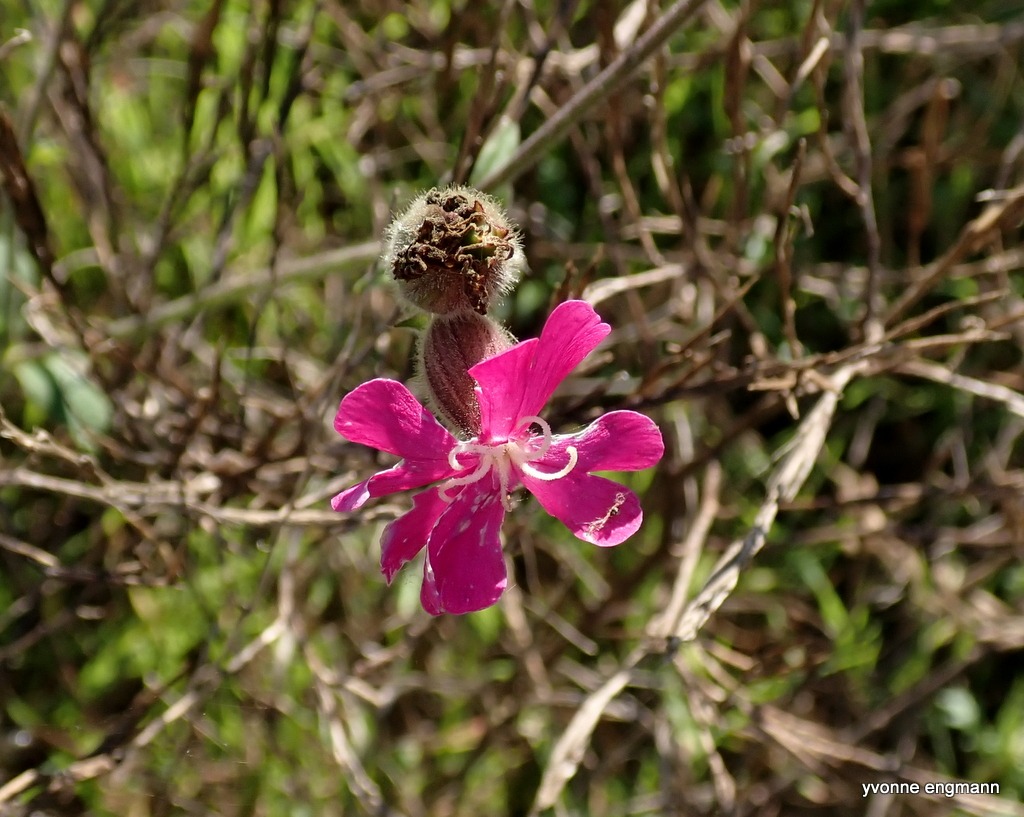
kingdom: Plantae
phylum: Tracheophyta
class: Magnoliopsida
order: Caryophyllales
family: Caryophyllaceae
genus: Silene
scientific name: Silene dioica
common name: Dagpragtstjerne
